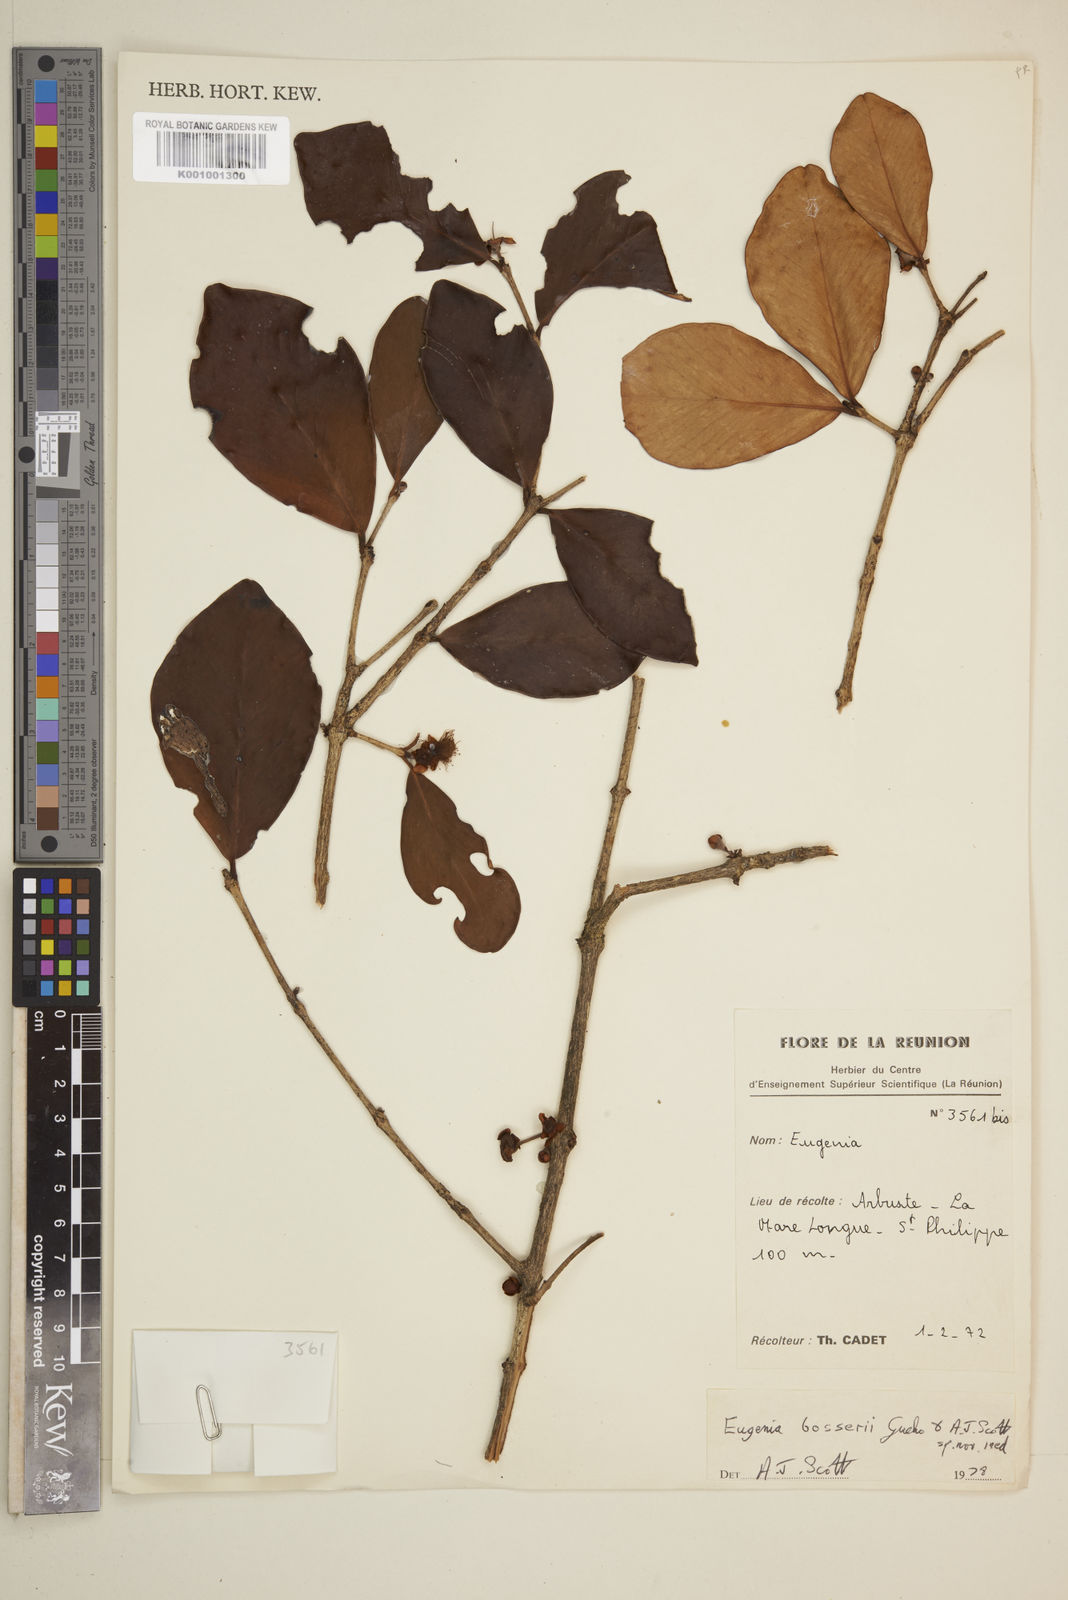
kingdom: Plantae
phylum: Tracheophyta
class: Magnoliopsida
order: Myrtales
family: Myrtaceae
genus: Eugenia
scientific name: Eugenia
